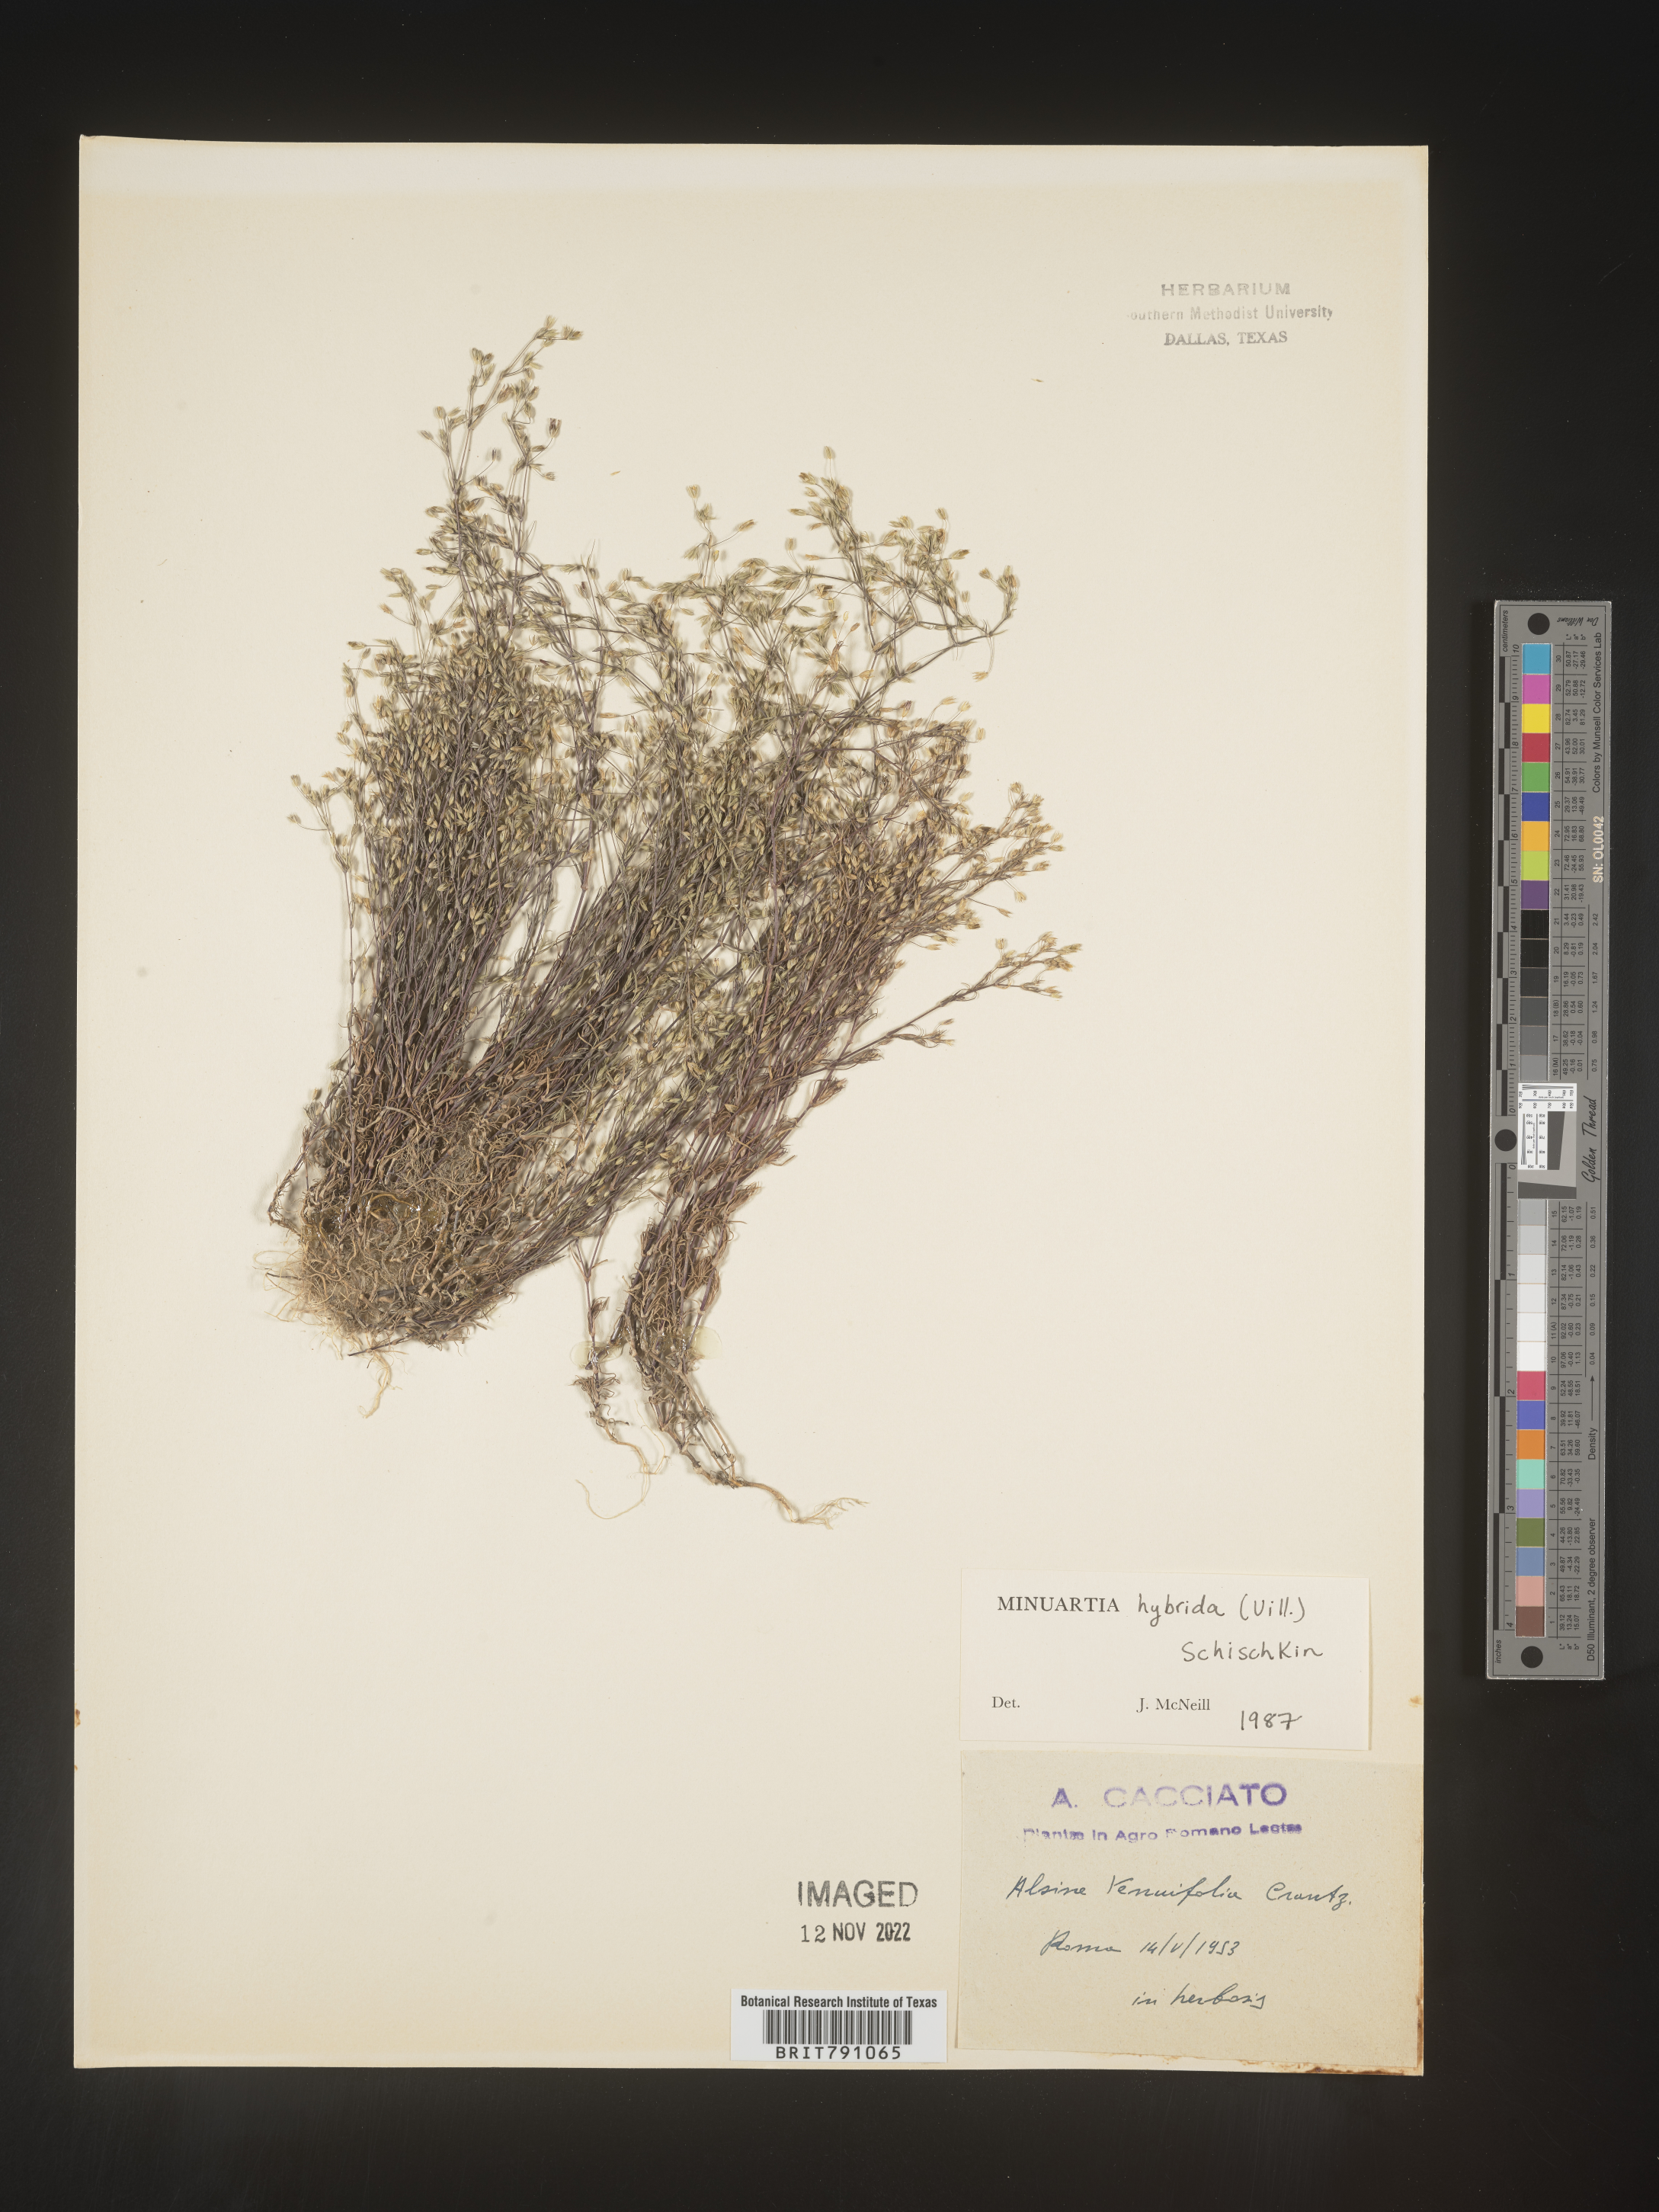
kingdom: Plantae
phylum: Tracheophyta
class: Magnoliopsida
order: Caryophyllales
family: Caryophyllaceae
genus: Minuartia
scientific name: Minuartia
